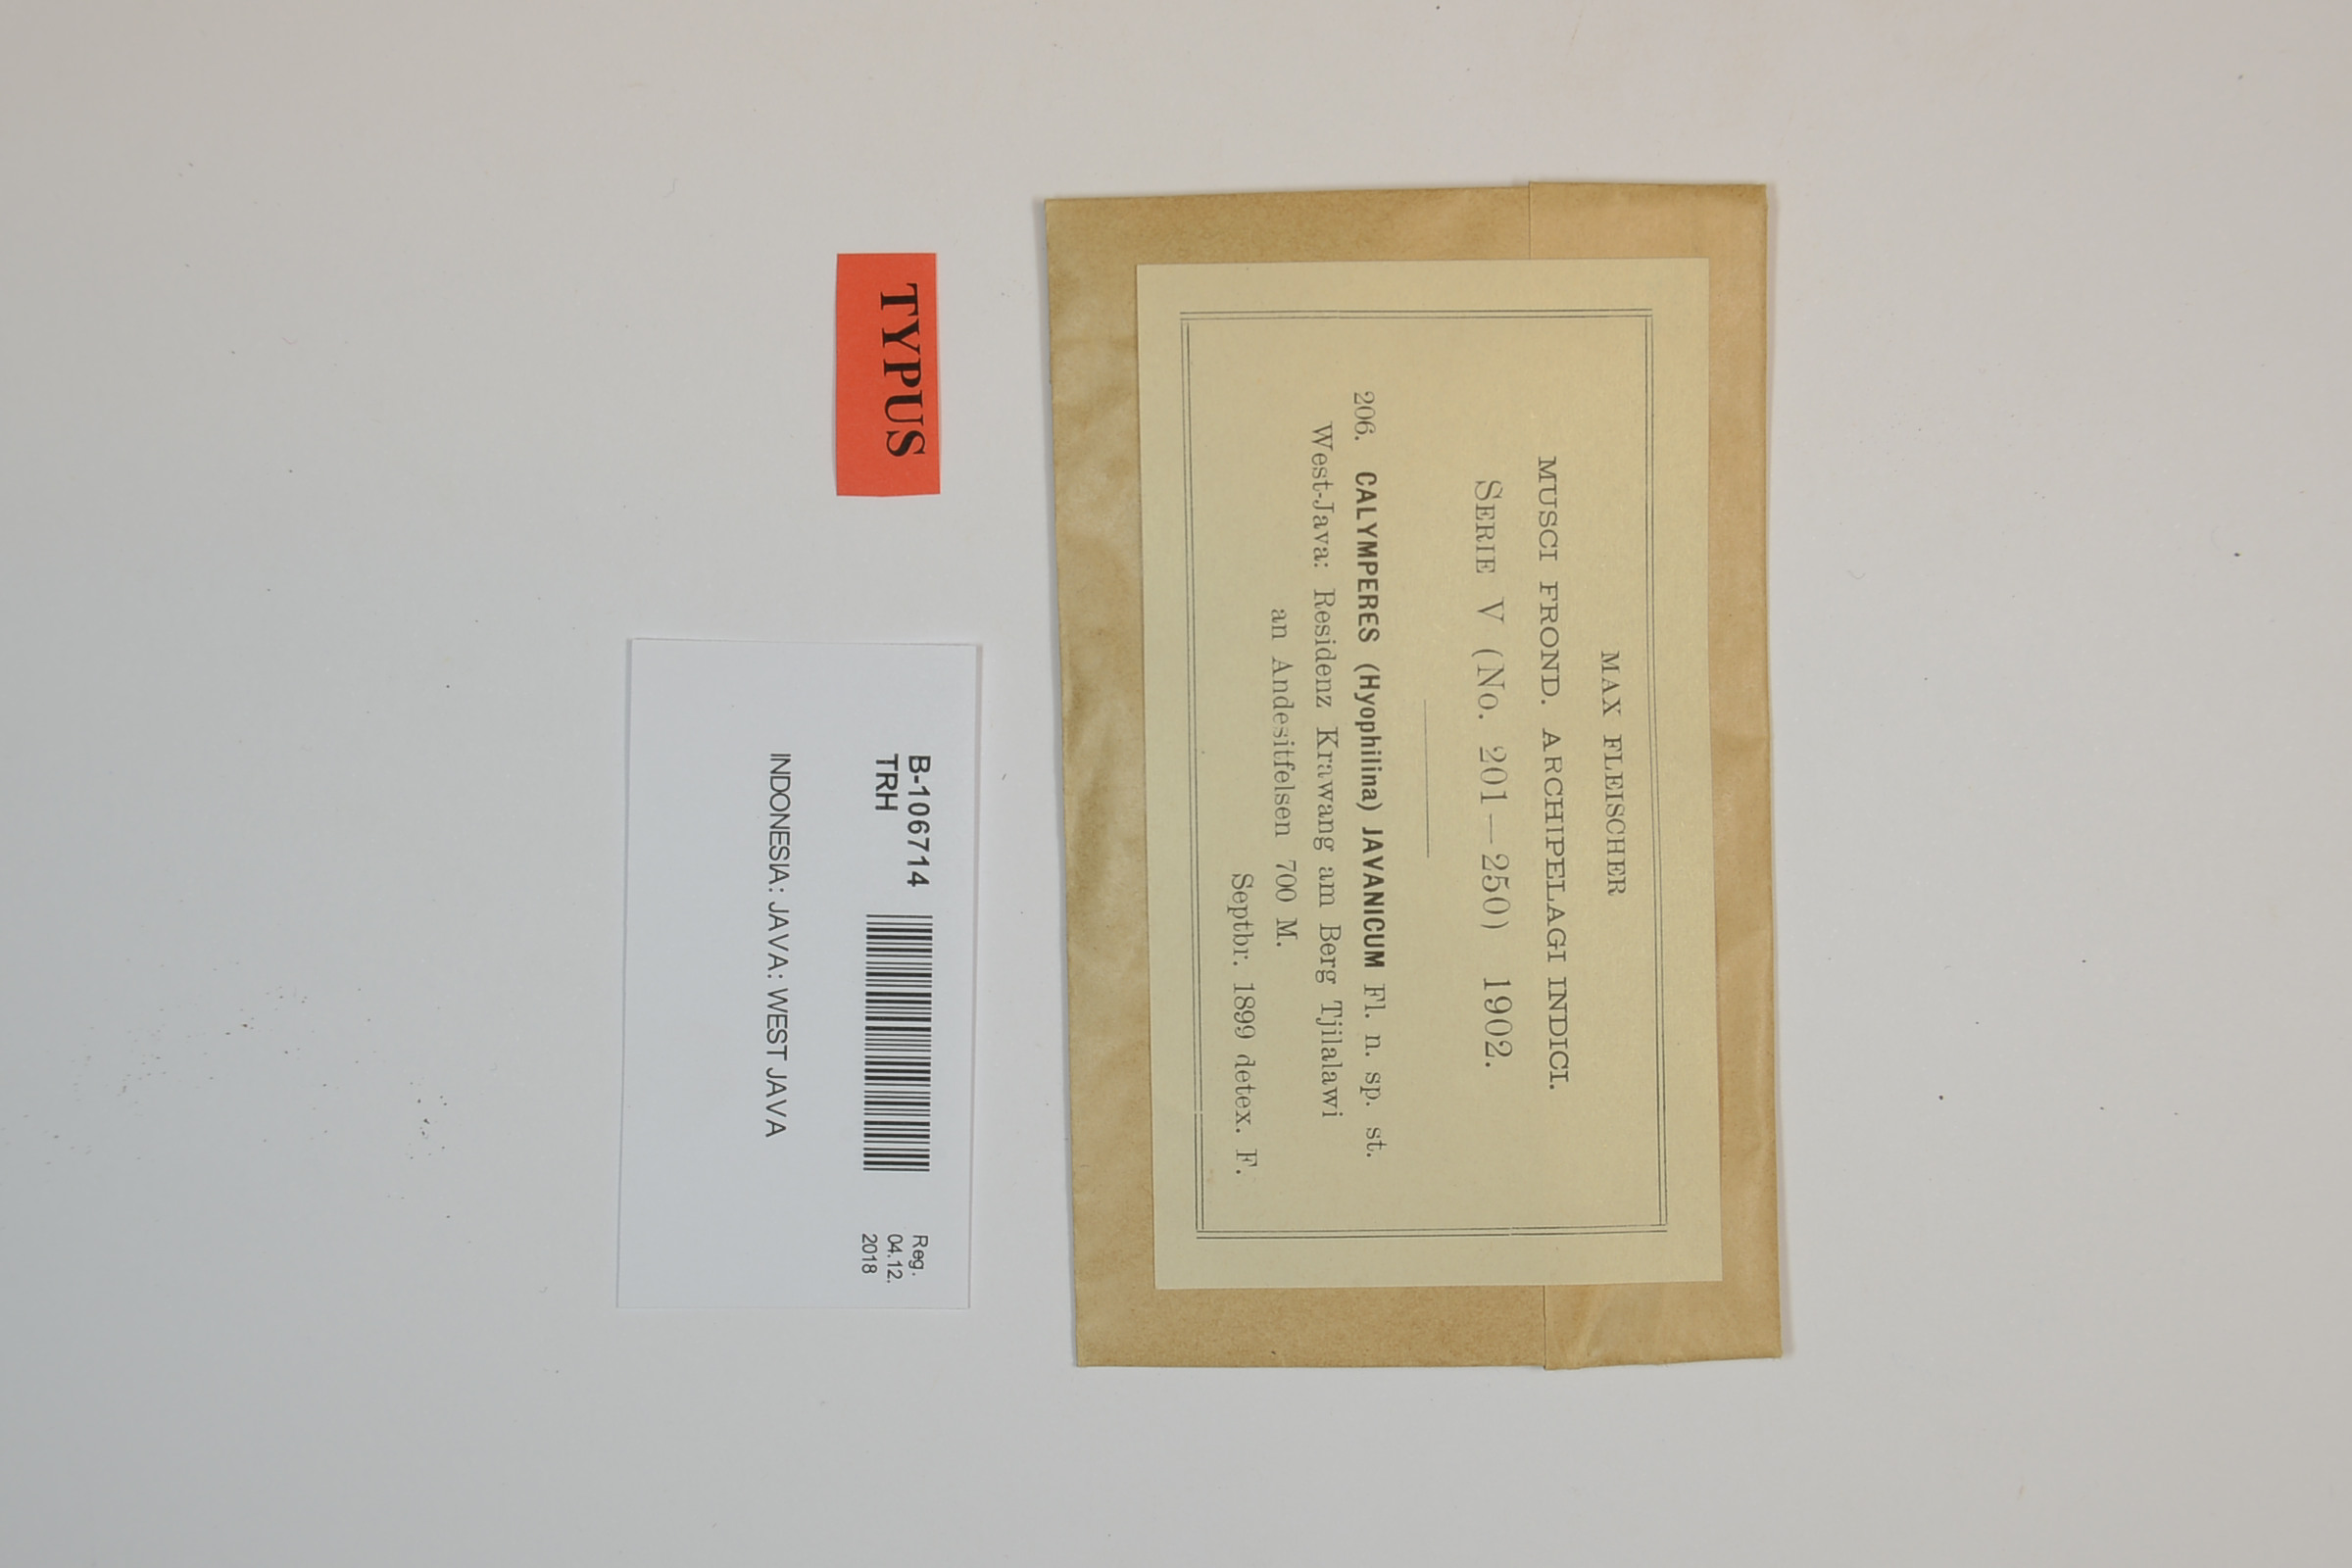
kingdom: Plantae
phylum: Bryophyta
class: Bryopsida
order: Dicranales
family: Calymperaceae
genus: Calymperes
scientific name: Calymperes afzelii
